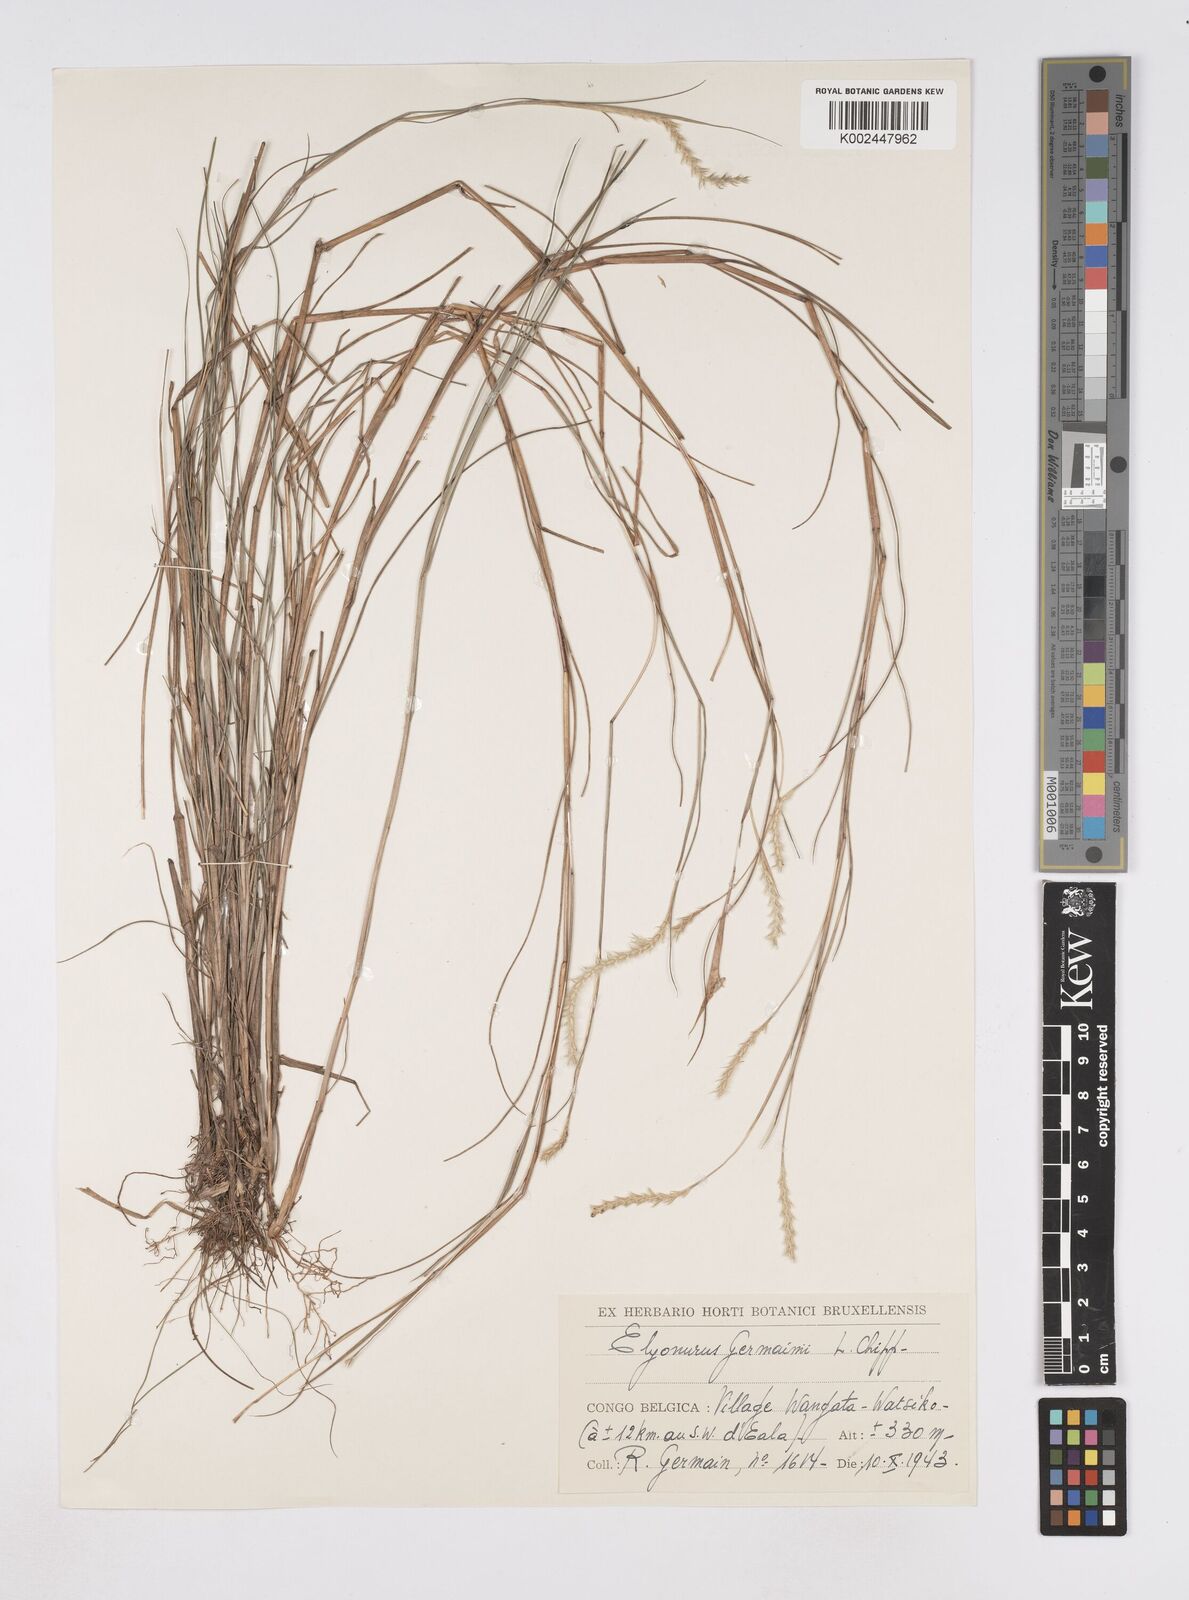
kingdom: Plantae
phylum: Tracheophyta
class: Liliopsida
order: Poales
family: Poaceae
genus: Elionurus
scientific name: Elionurus hensii
